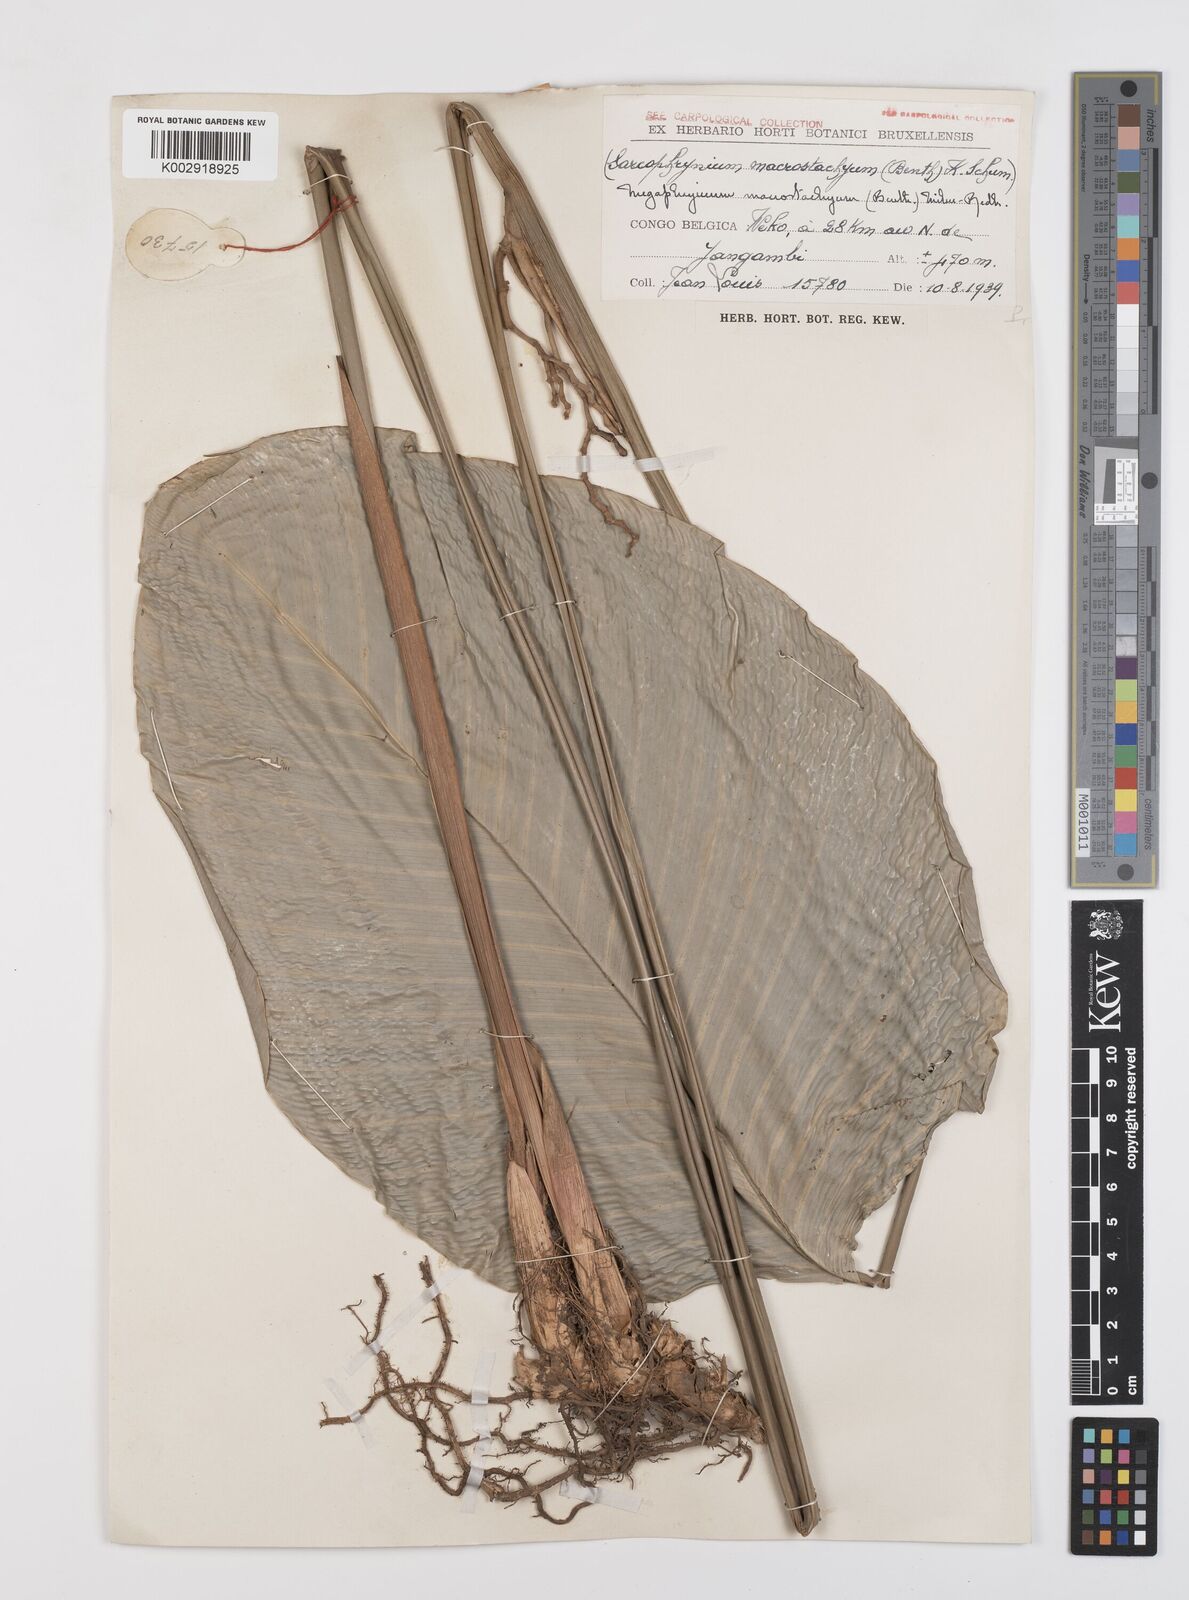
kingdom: Plantae
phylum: Tracheophyta
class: Liliopsida
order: Zingiberales
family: Marantaceae
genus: Megaphrynium
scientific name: Megaphrynium macrostachyum
